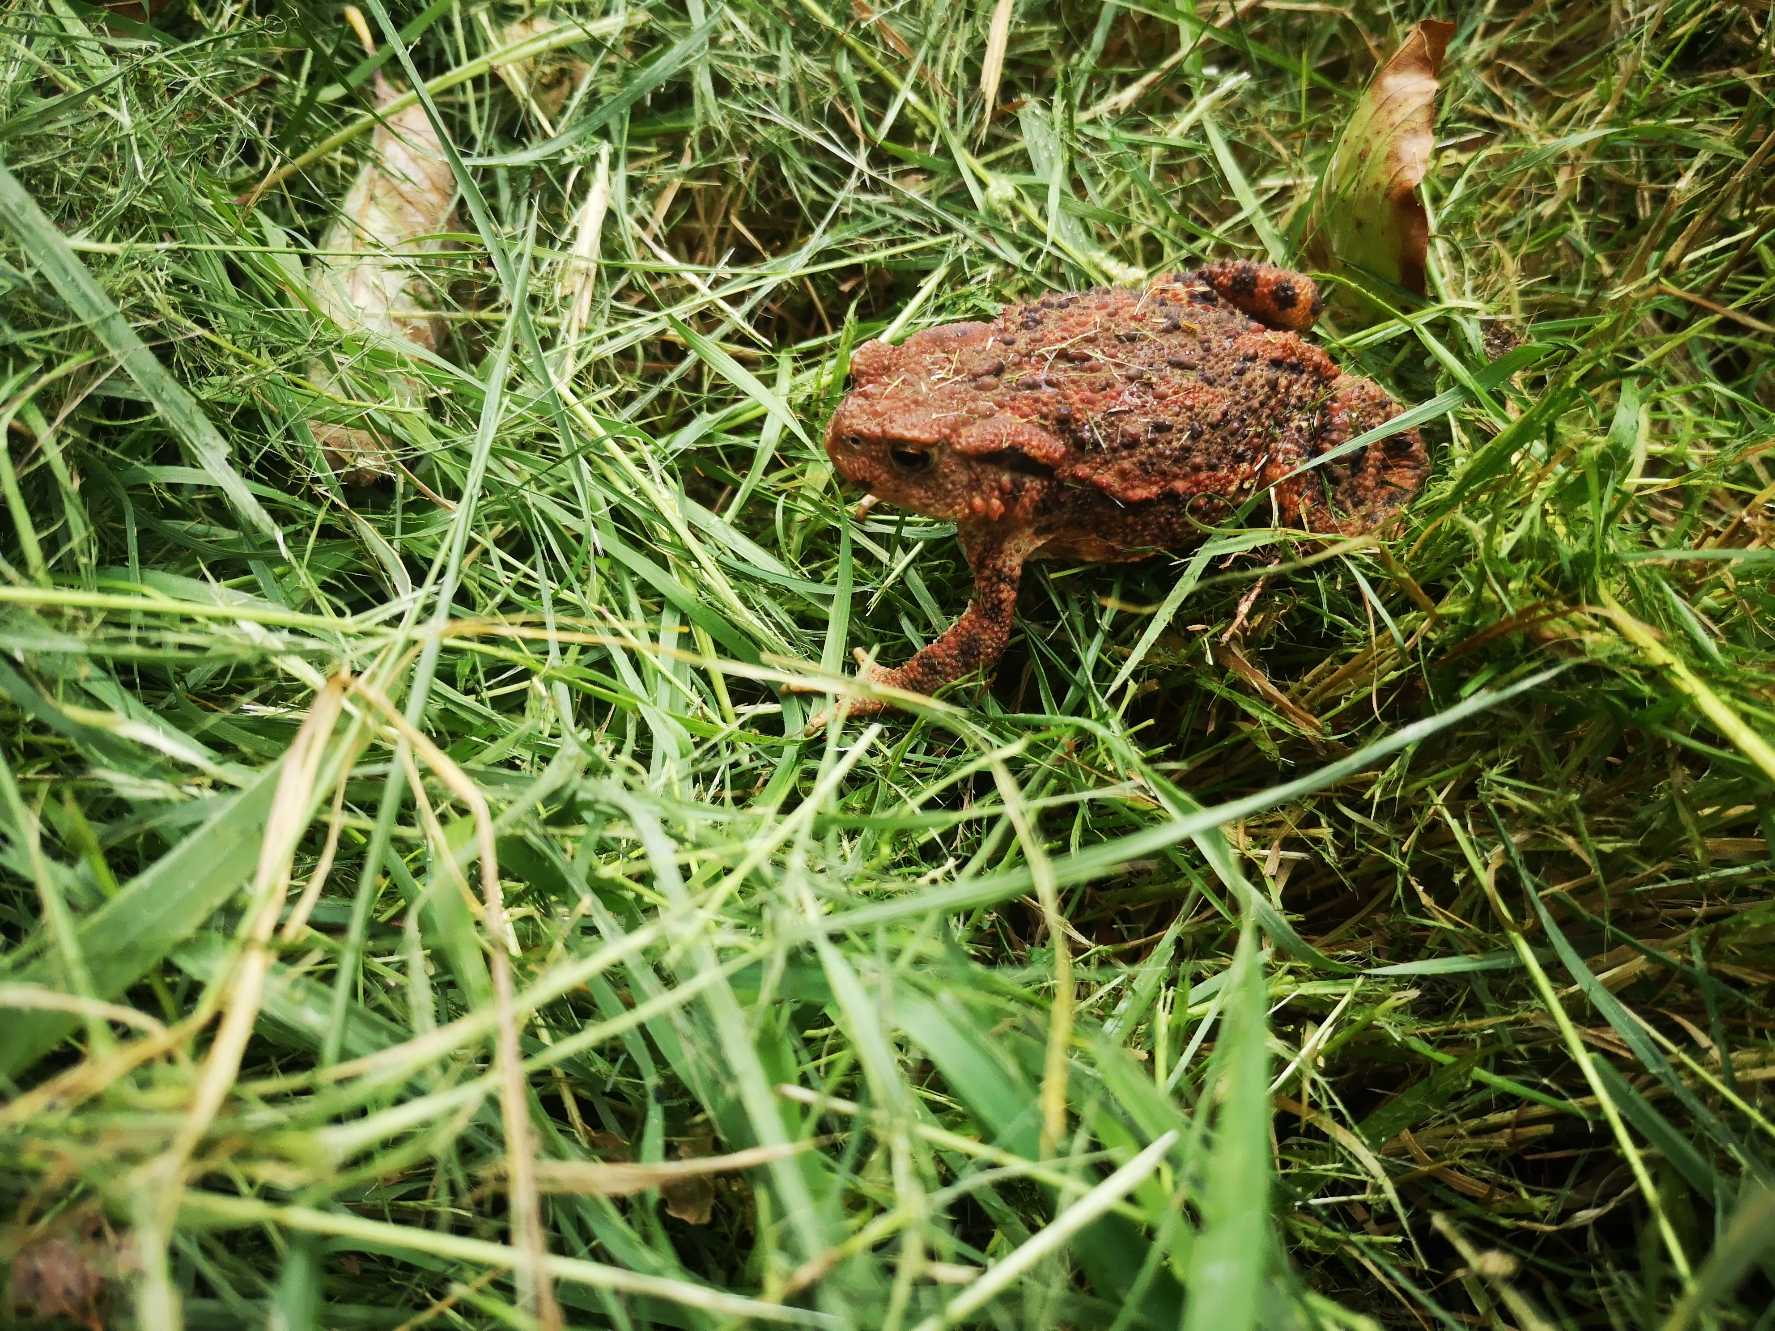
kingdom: Animalia
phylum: Chordata
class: Amphibia
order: Anura
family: Bufonidae
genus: Bufo
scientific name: Bufo bufo
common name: Skrubtudse
